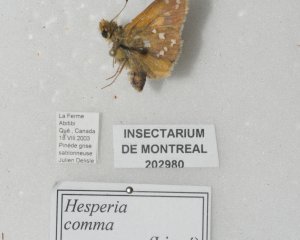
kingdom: Animalia
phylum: Arthropoda
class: Insecta
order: Lepidoptera
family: Hesperiidae
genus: Hesperia
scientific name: Hesperia comma
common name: Common Branded Skipper
